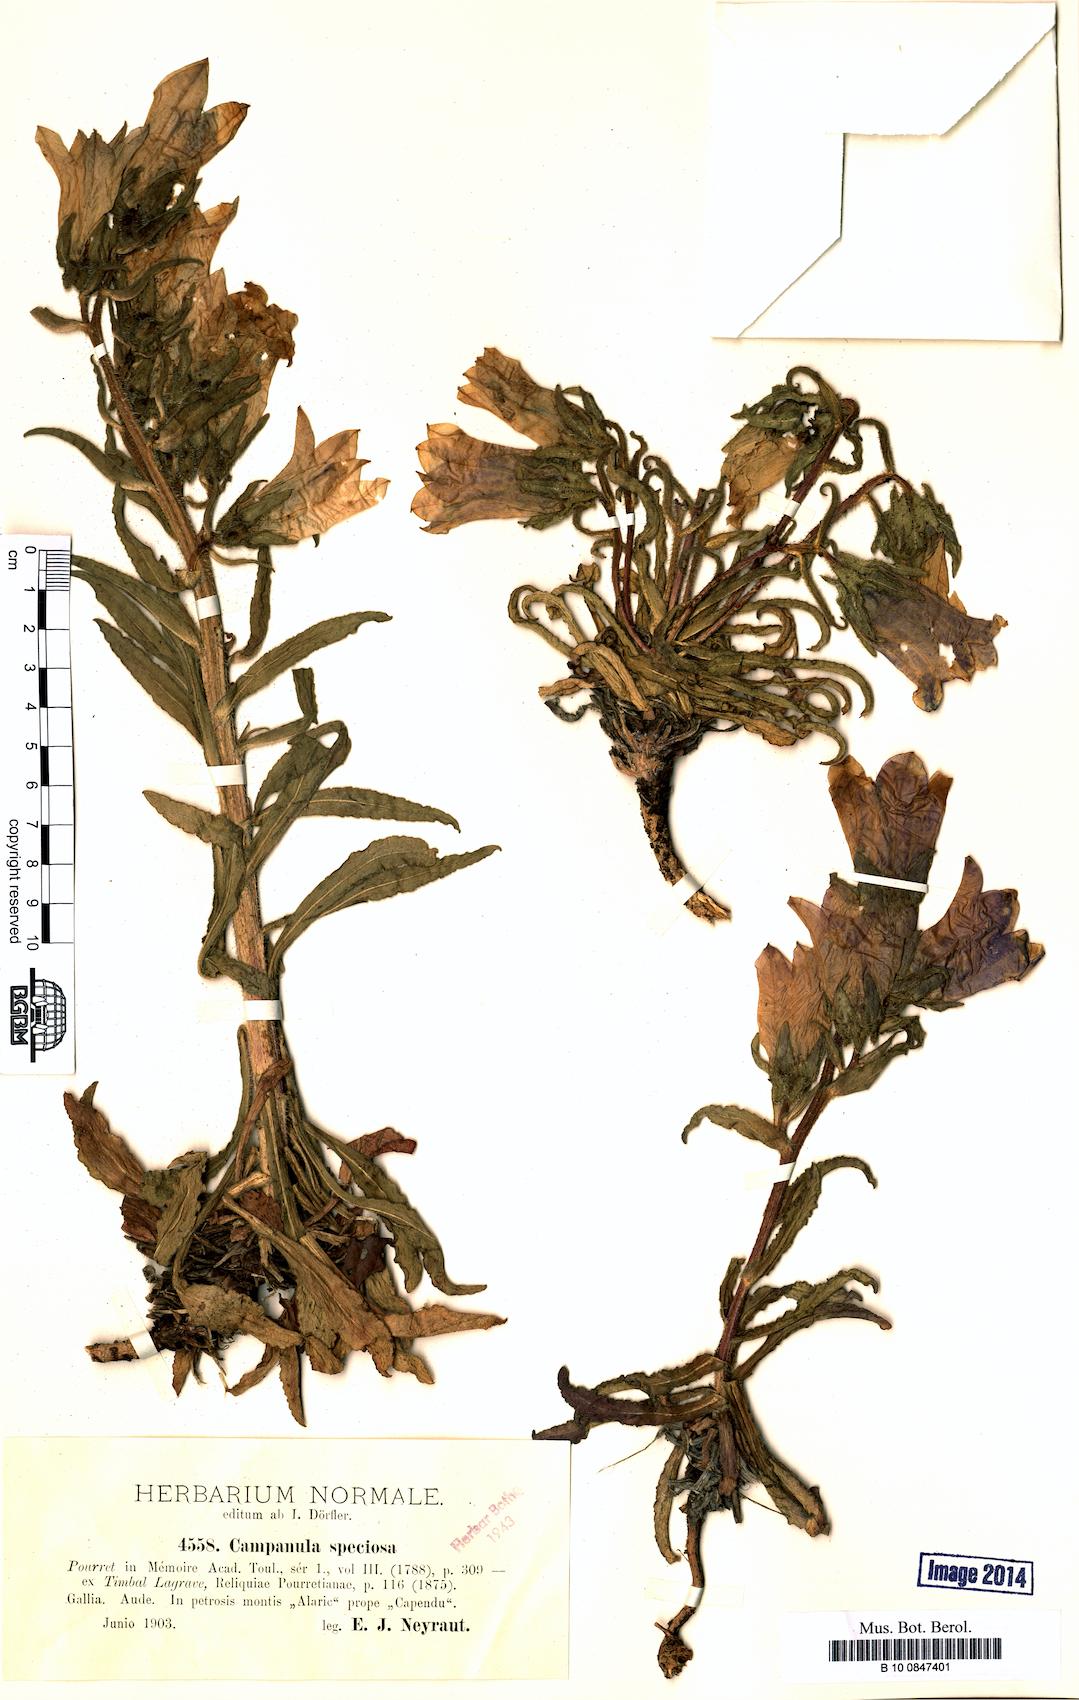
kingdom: Plantae
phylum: Tracheophyta
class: Magnoliopsida
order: Asterales
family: Campanulaceae
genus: Campanula
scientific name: Campanula speciosa
